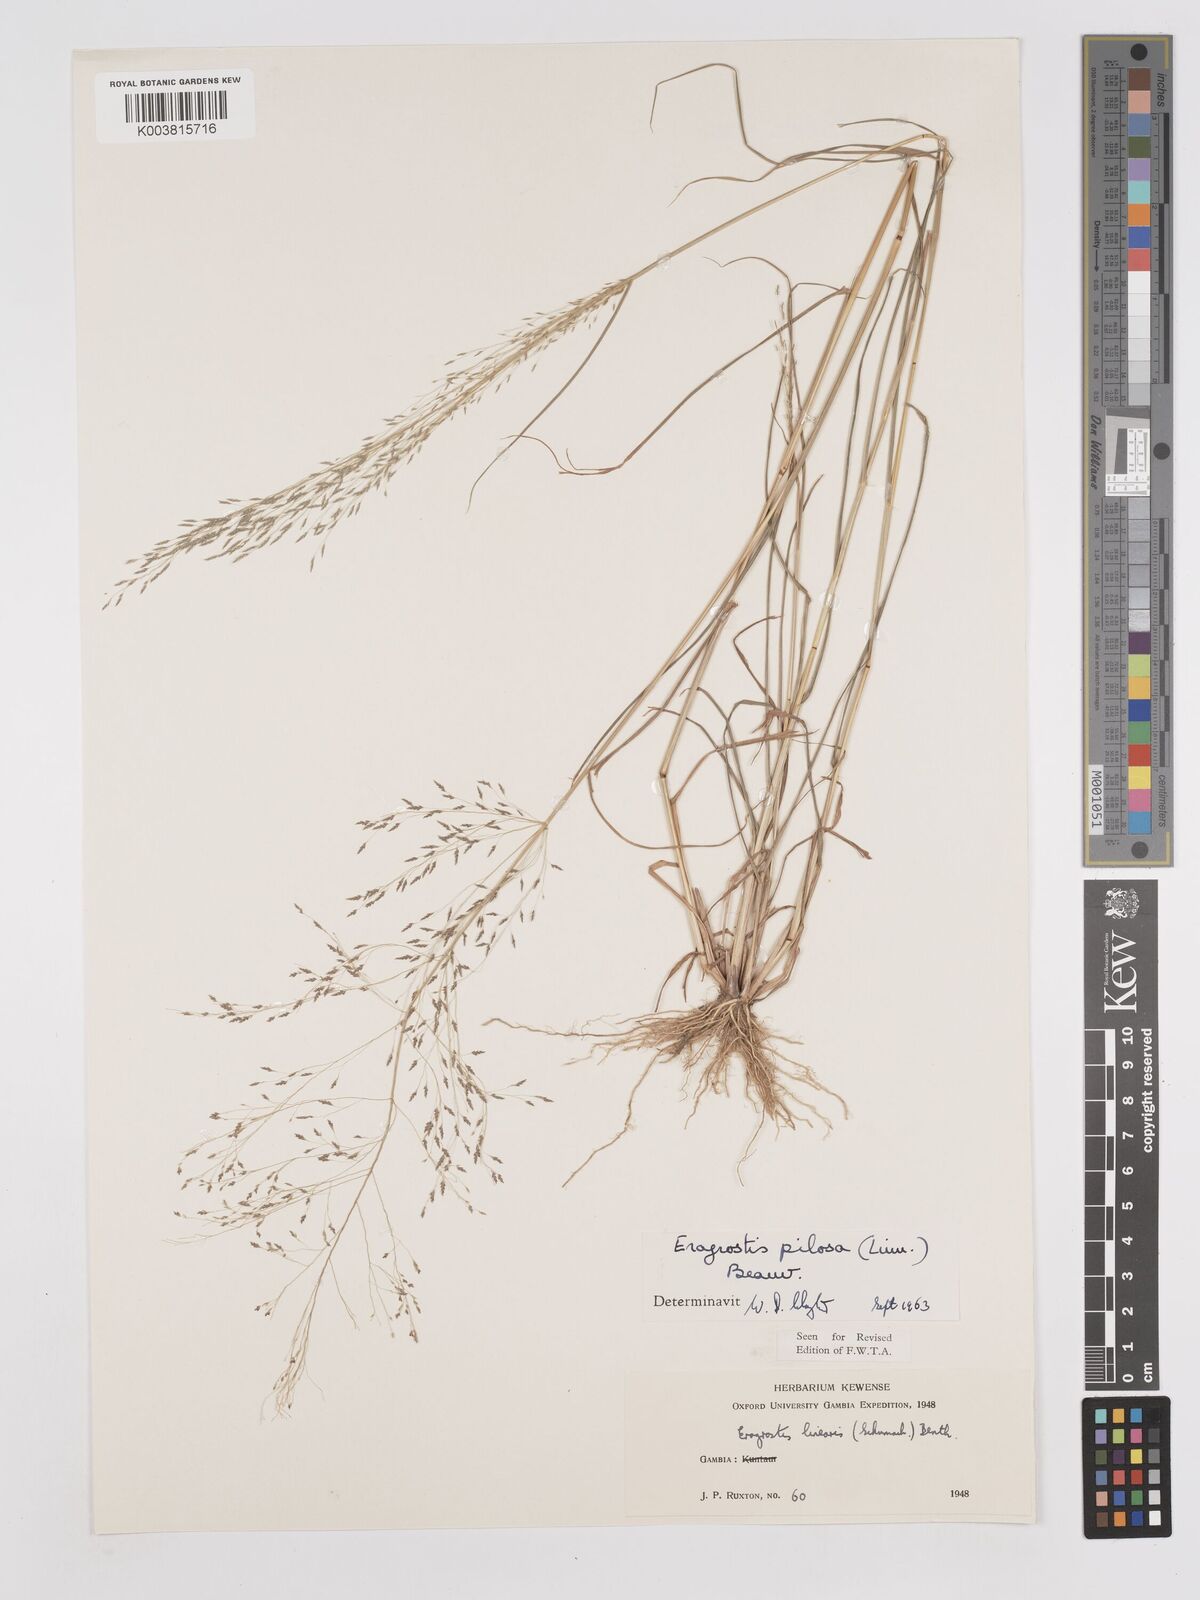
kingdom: Plantae
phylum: Tracheophyta
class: Liliopsida
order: Poales
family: Poaceae
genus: Eragrostis
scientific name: Eragrostis pilosa
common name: Indian lovegrass
